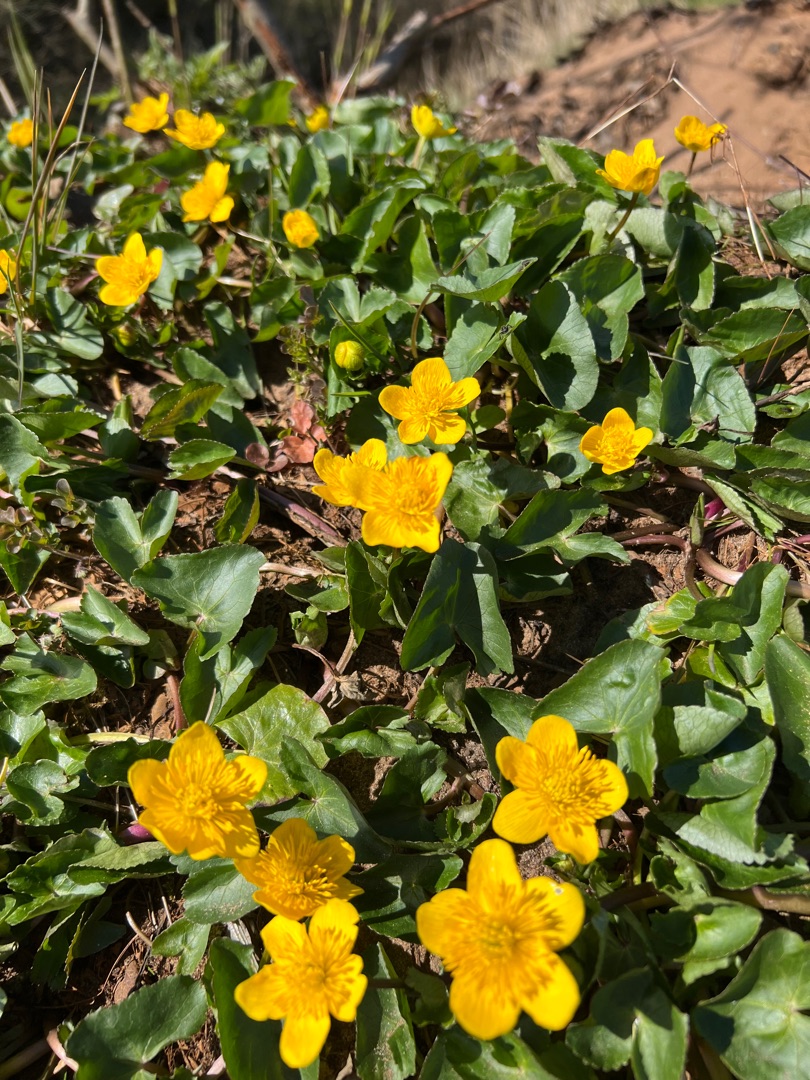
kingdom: Plantae
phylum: Tracheophyta
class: Magnoliopsida
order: Ranunculales
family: Ranunculaceae
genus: Caltha
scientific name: Caltha palustris
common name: Eng-kabbeleje
